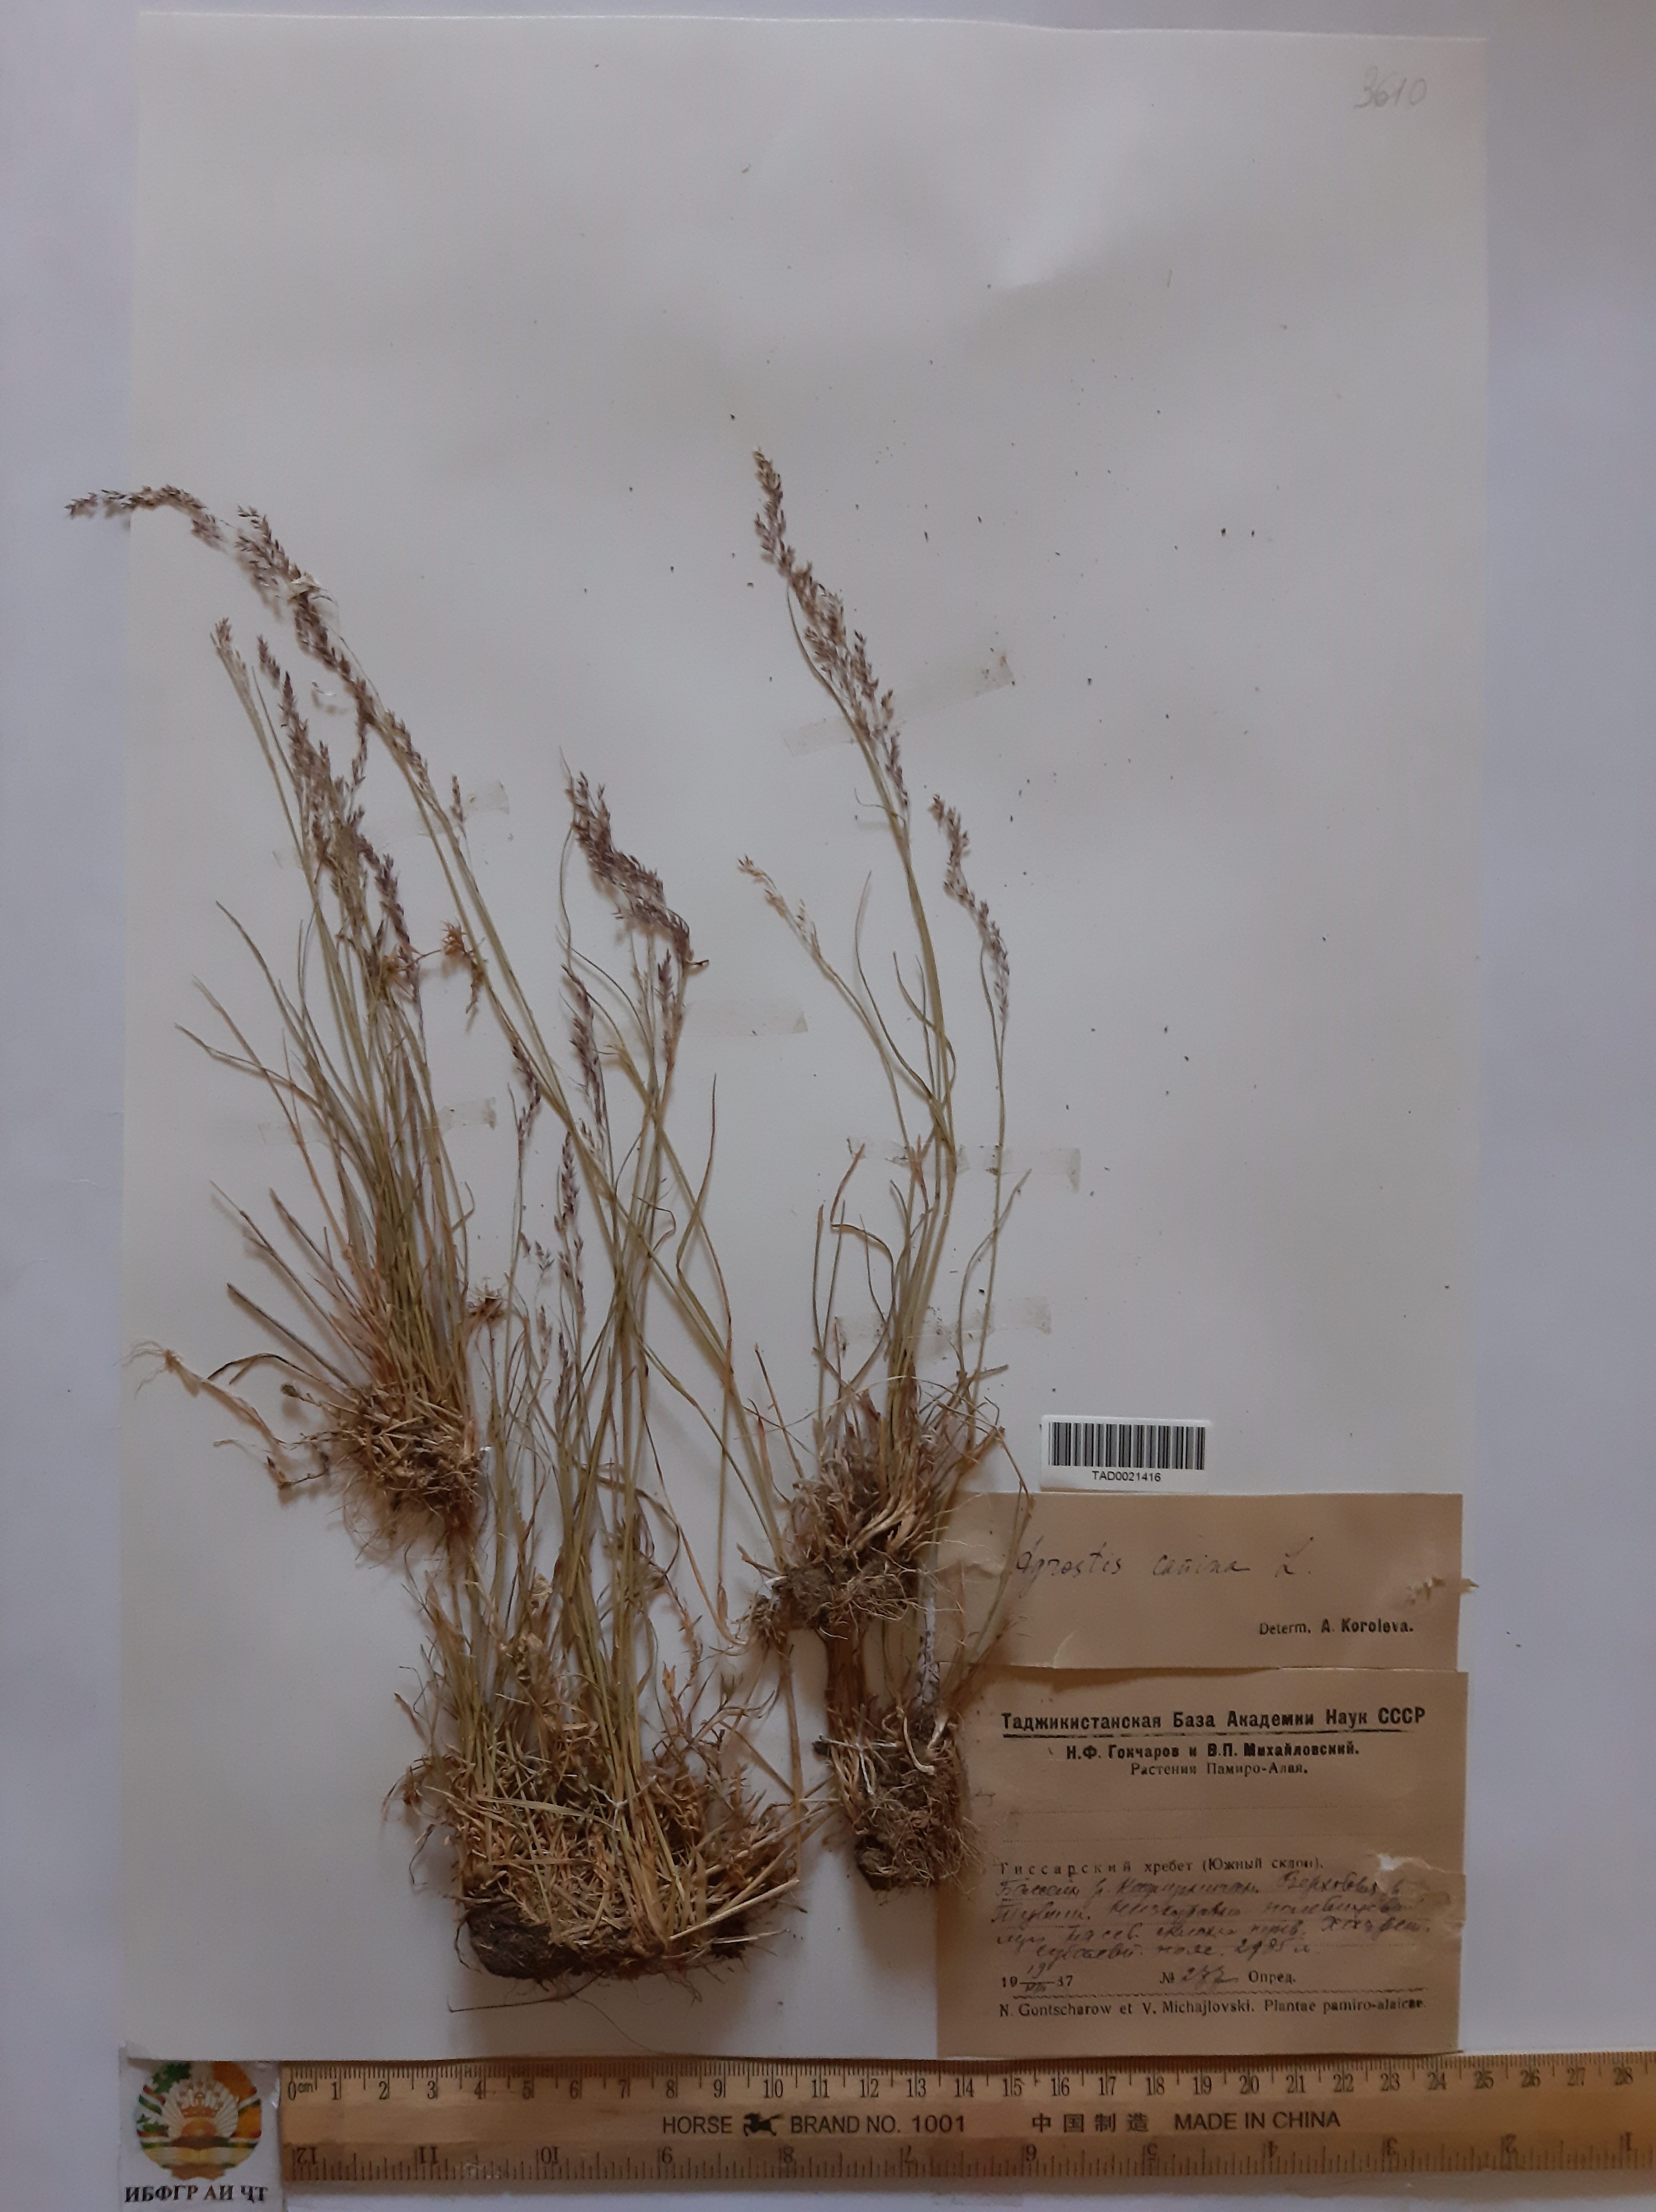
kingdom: Plantae
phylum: Tracheophyta
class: Liliopsida
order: Poales
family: Poaceae
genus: Agrostis
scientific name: Agrostis canina
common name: Velvet bent
